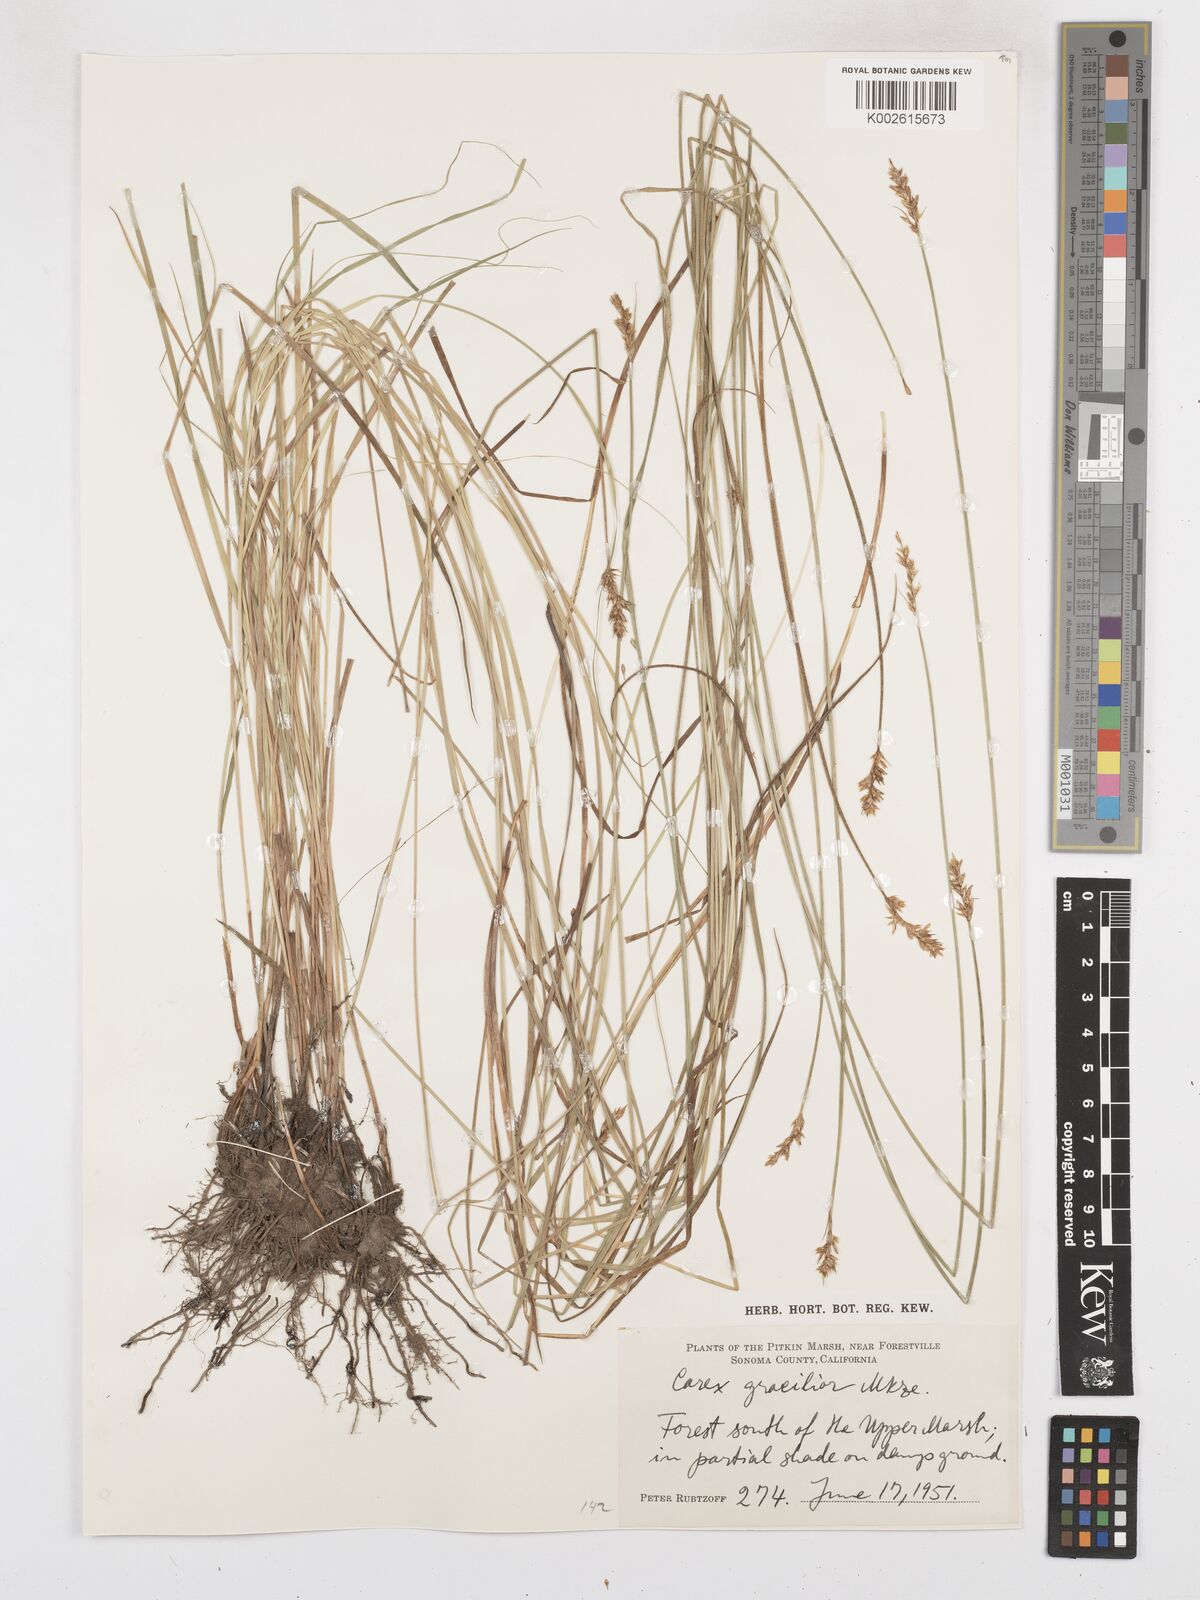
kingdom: Plantae
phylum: Tracheophyta
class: Liliopsida
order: Poales
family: Cyperaceae
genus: Carex
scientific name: Carex gracilior
